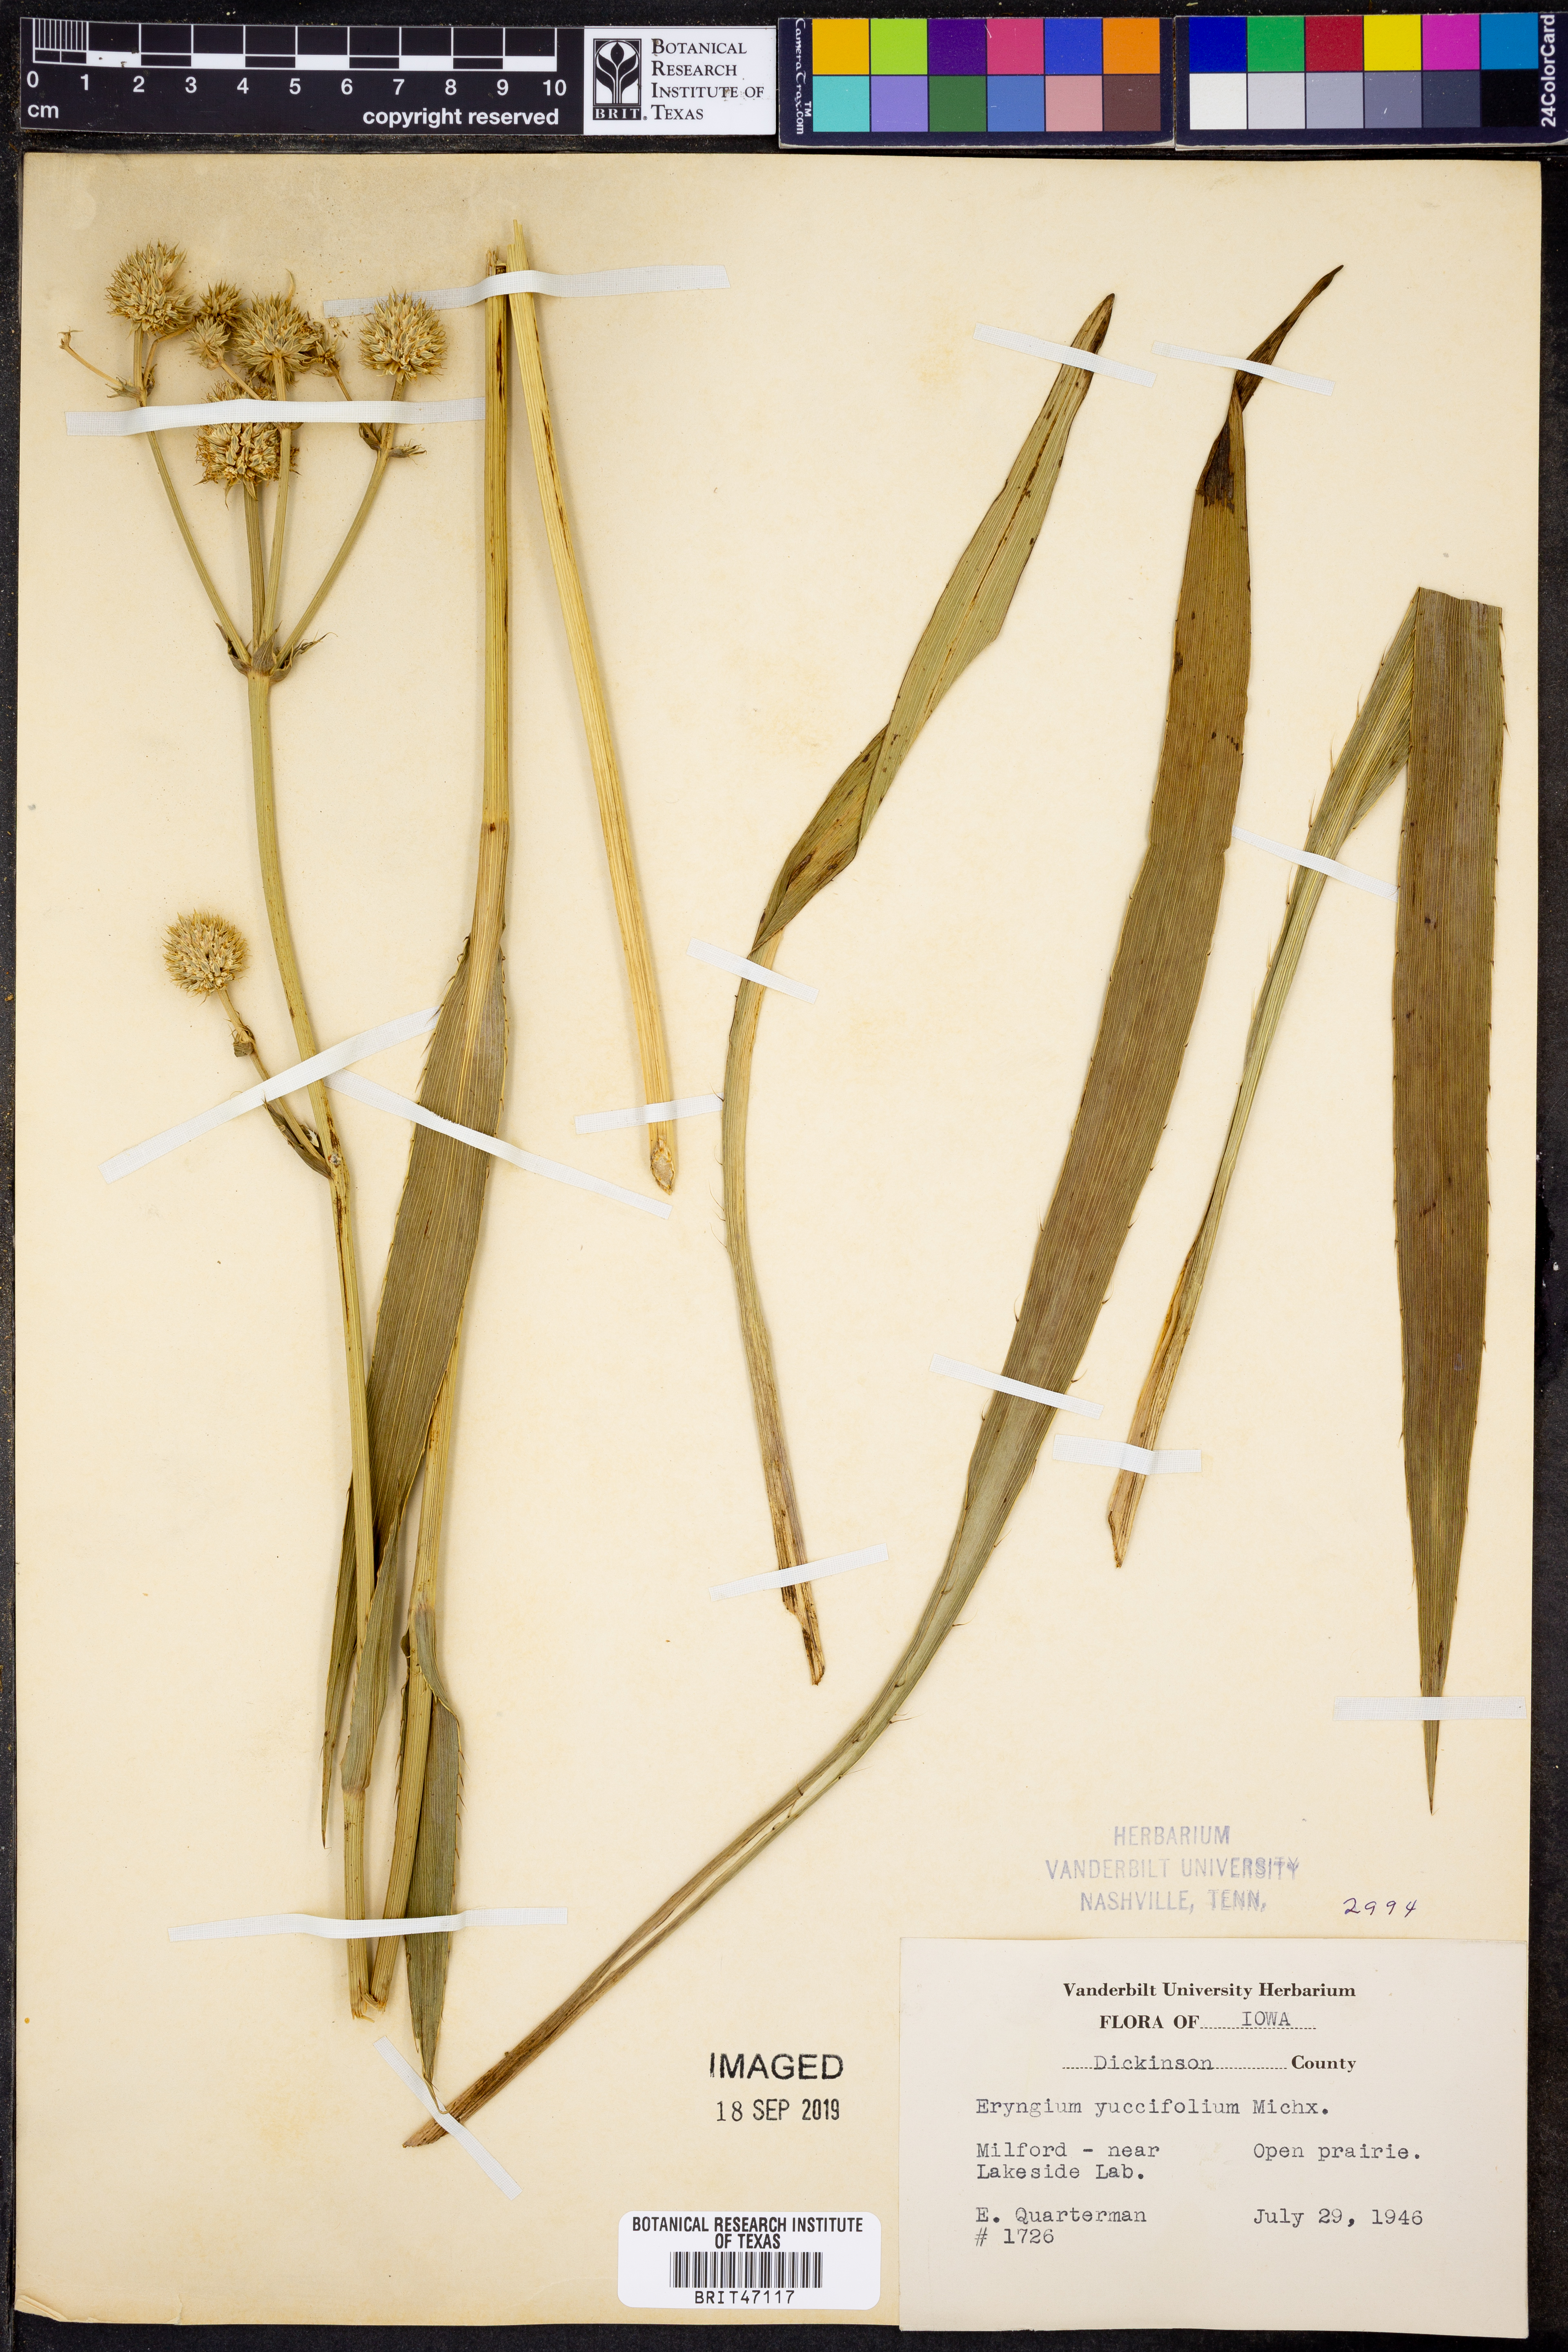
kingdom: Plantae
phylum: Tracheophyta
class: Magnoliopsida
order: Apiales
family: Apiaceae
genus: Eryngium
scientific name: Eryngium yuccifolium
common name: Button eryngo
